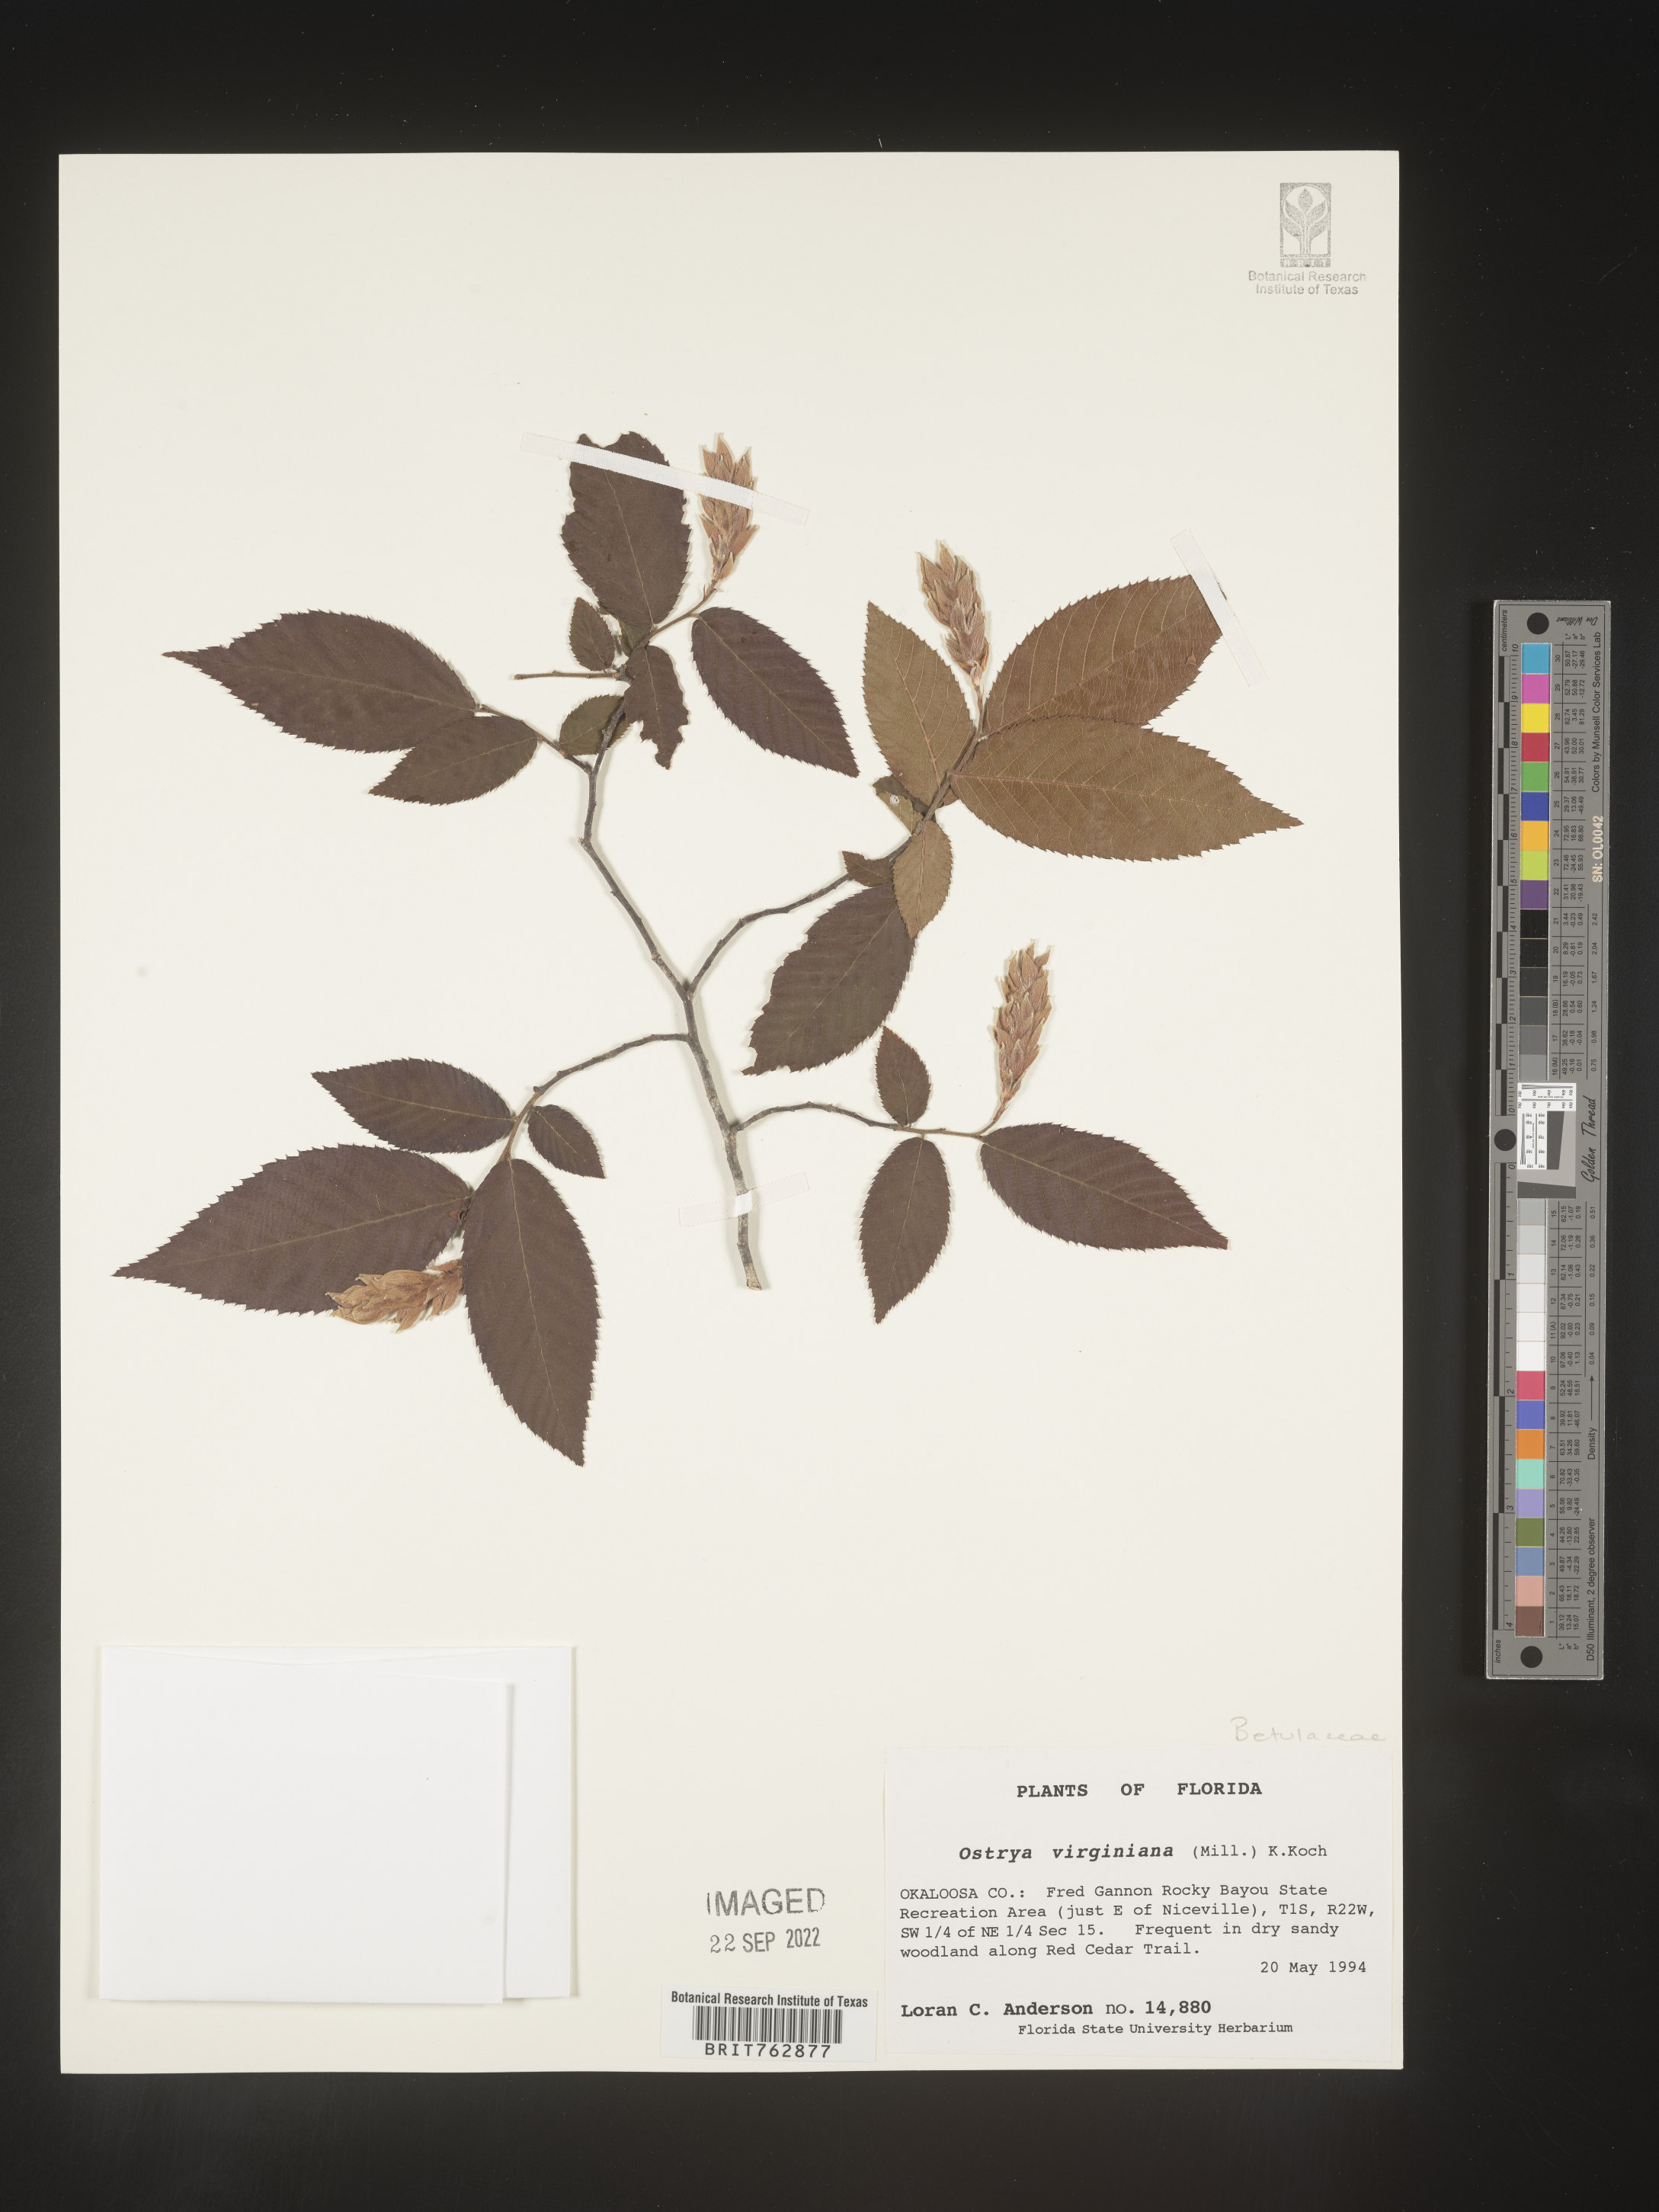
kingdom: Plantae
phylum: Tracheophyta
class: Magnoliopsida
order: Fagales
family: Betulaceae
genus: Ostrya
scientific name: Ostrya virginiana
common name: Ironwood
